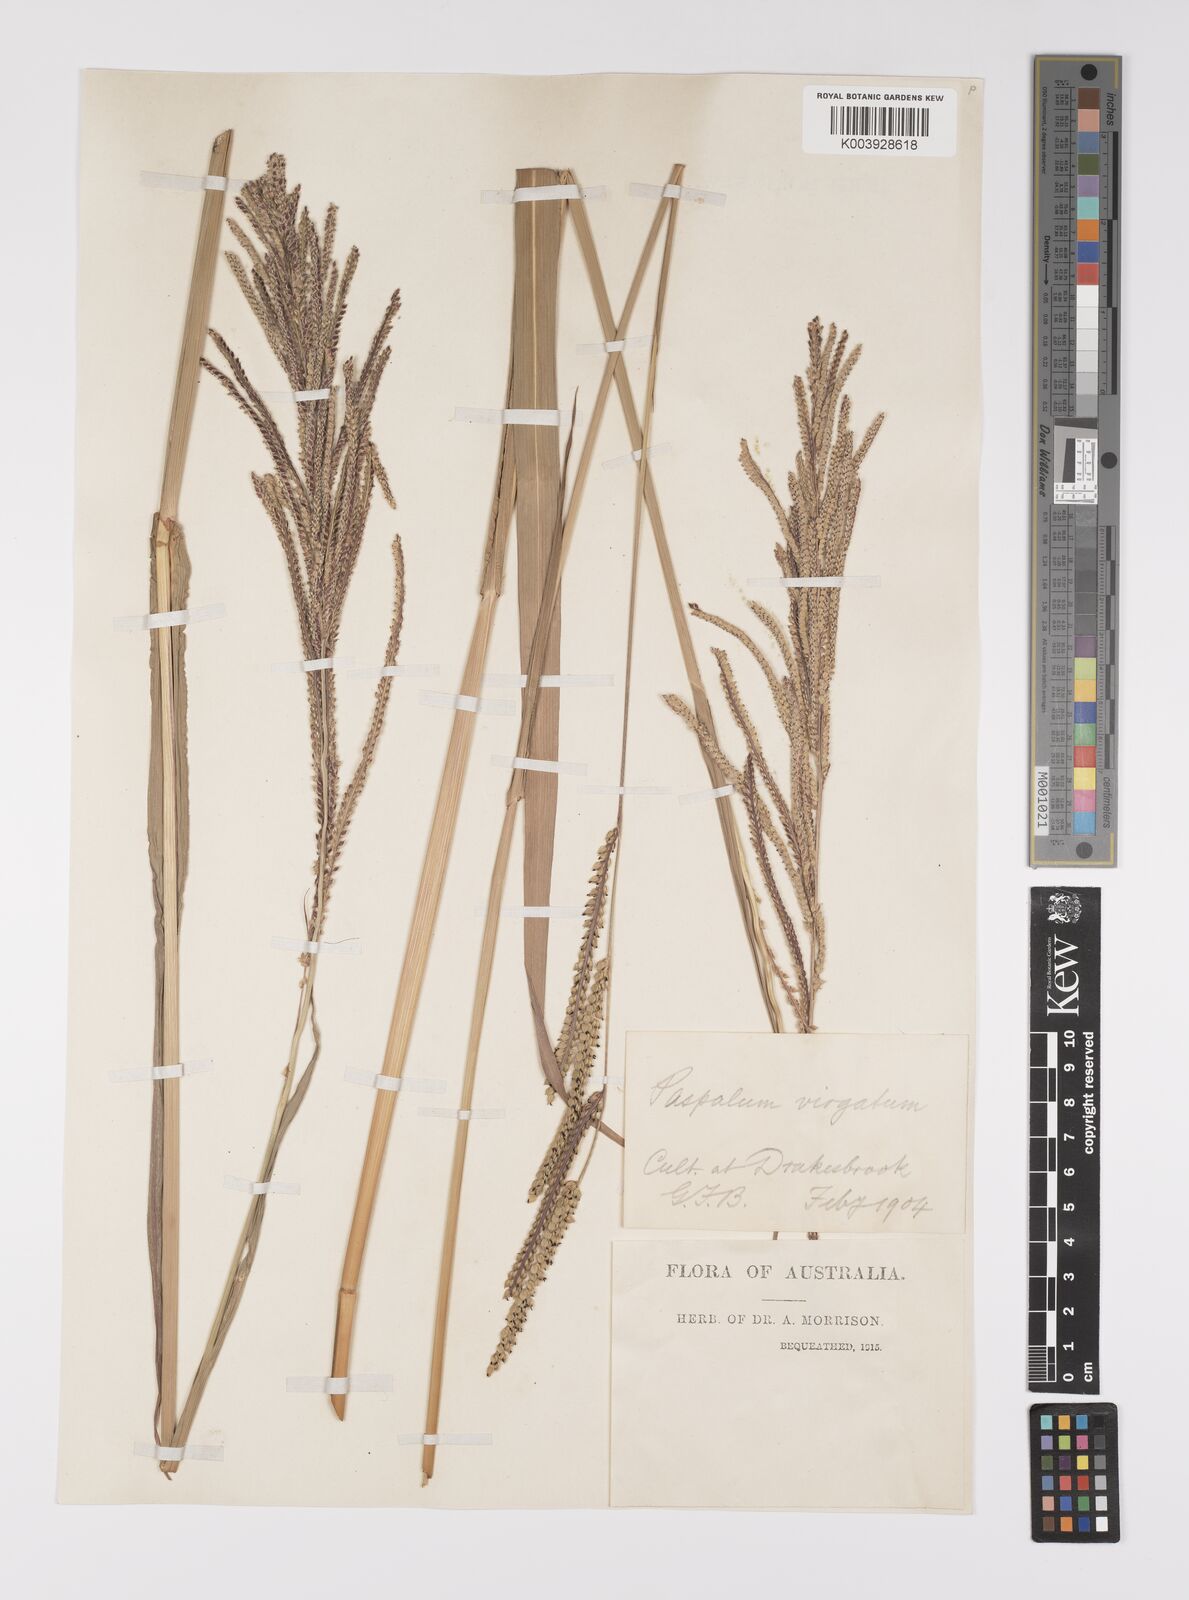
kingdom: Plantae
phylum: Tracheophyta
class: Liliopsida
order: Poales
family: Poaceae
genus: Paspalum
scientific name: Paspalum urvillei
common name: Vasey's grass
